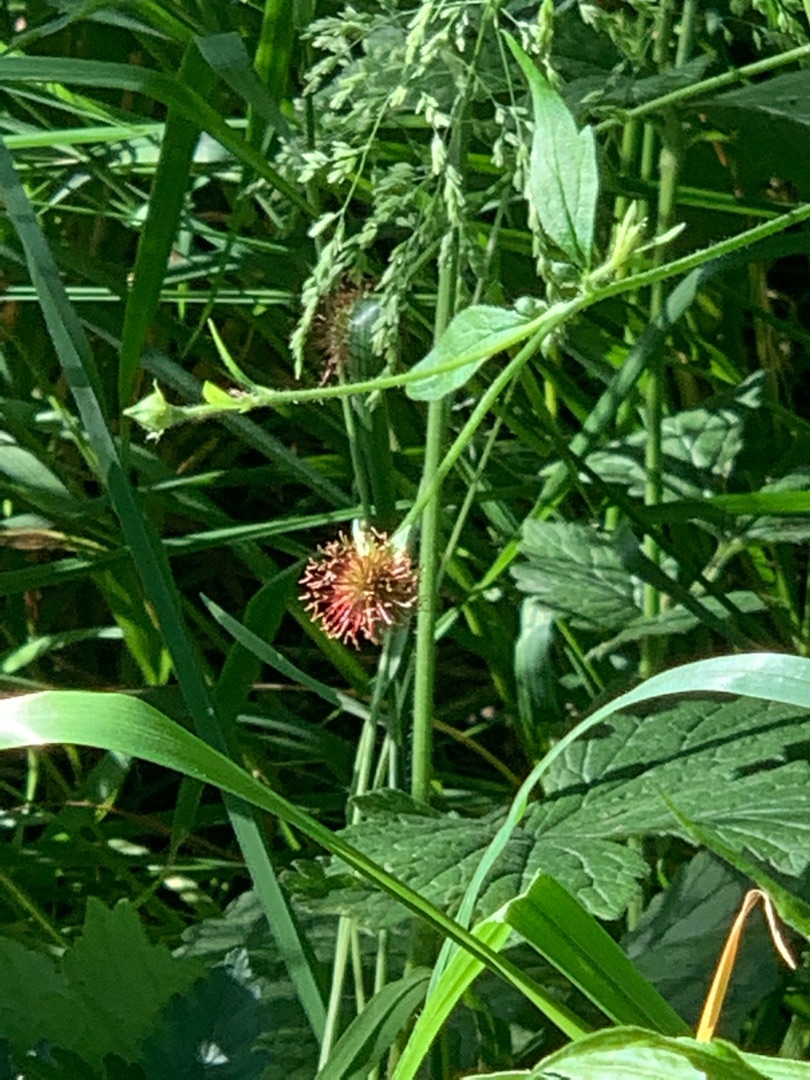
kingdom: Plantae
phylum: Tracheophyta
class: Magnoliopsida
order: Rosales
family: Rosaceae
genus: Geum
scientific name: Geum urbanum
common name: Feber-nellikerod
